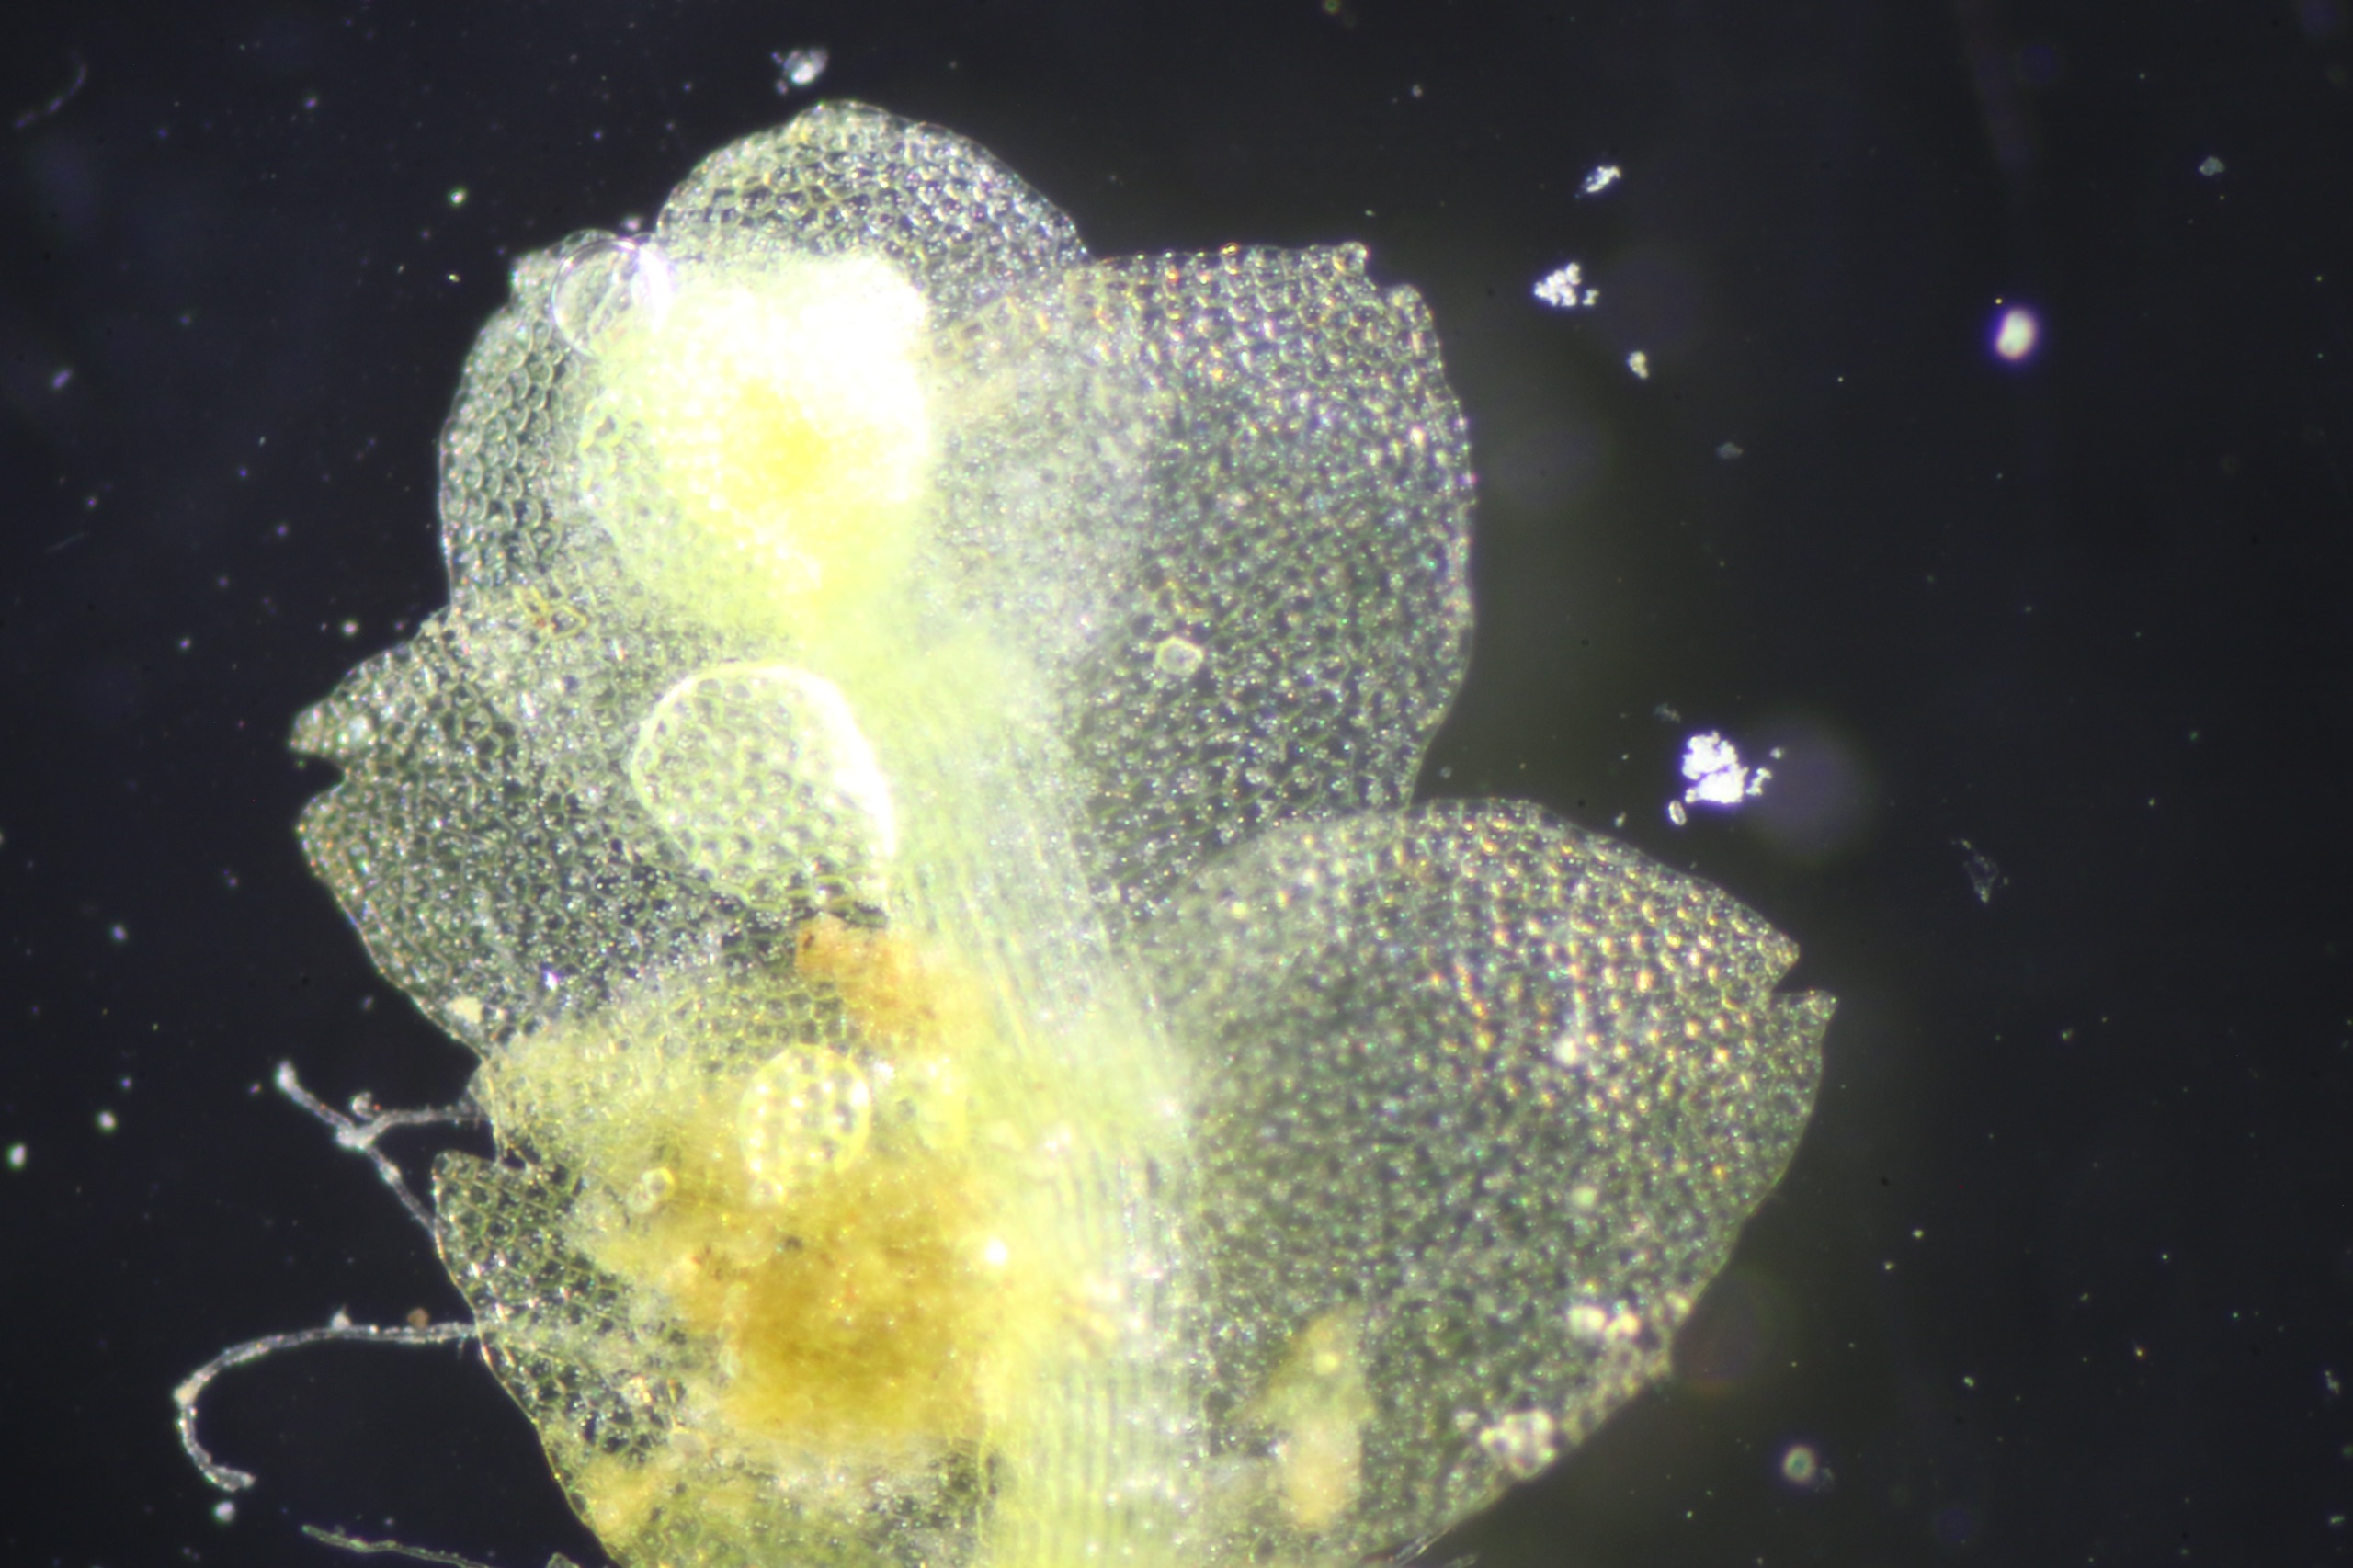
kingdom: Plantae
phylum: Marchantiophyta
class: Jungermanniopsida
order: Jungermanniales
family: Calypogeiaceae
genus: Calypogeia
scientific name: Calypogeia fissa
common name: Tvespidset sækmos
